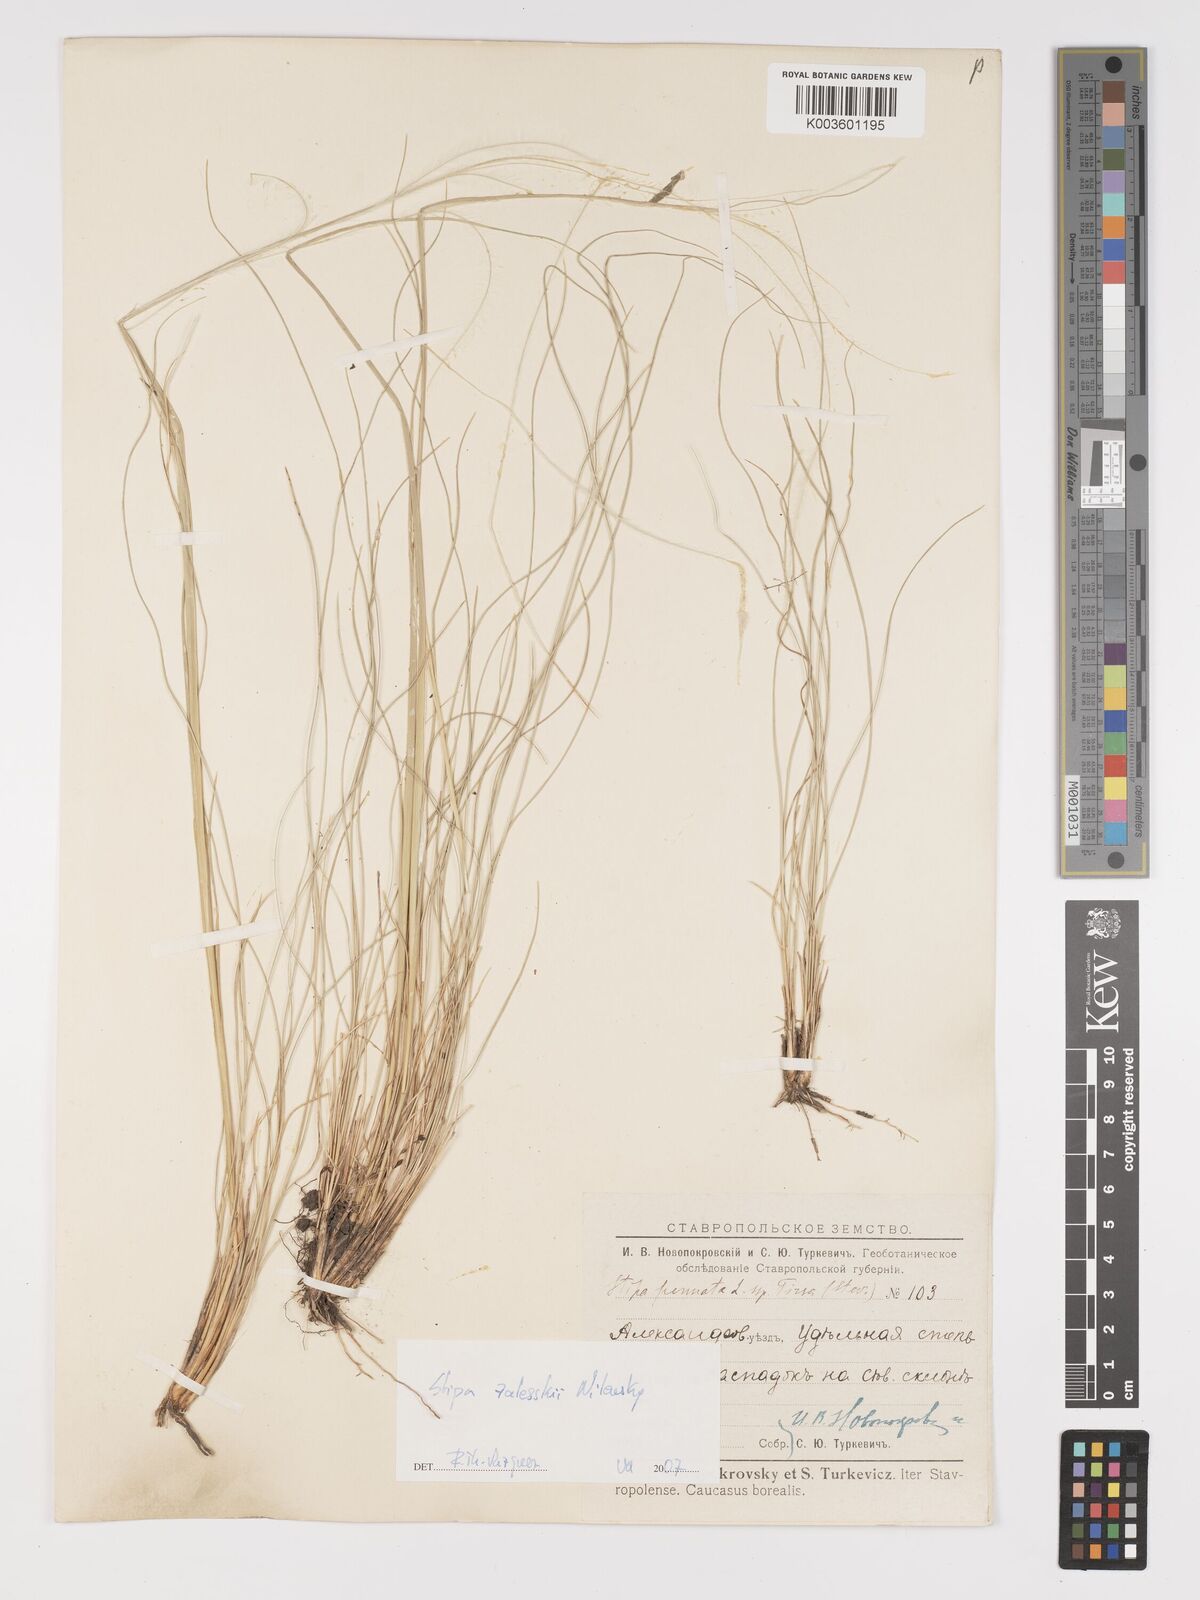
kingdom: Plantae
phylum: Tracheophyta
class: Liliopsida
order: Poales
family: Poaceae
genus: Stipa
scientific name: Stipa
